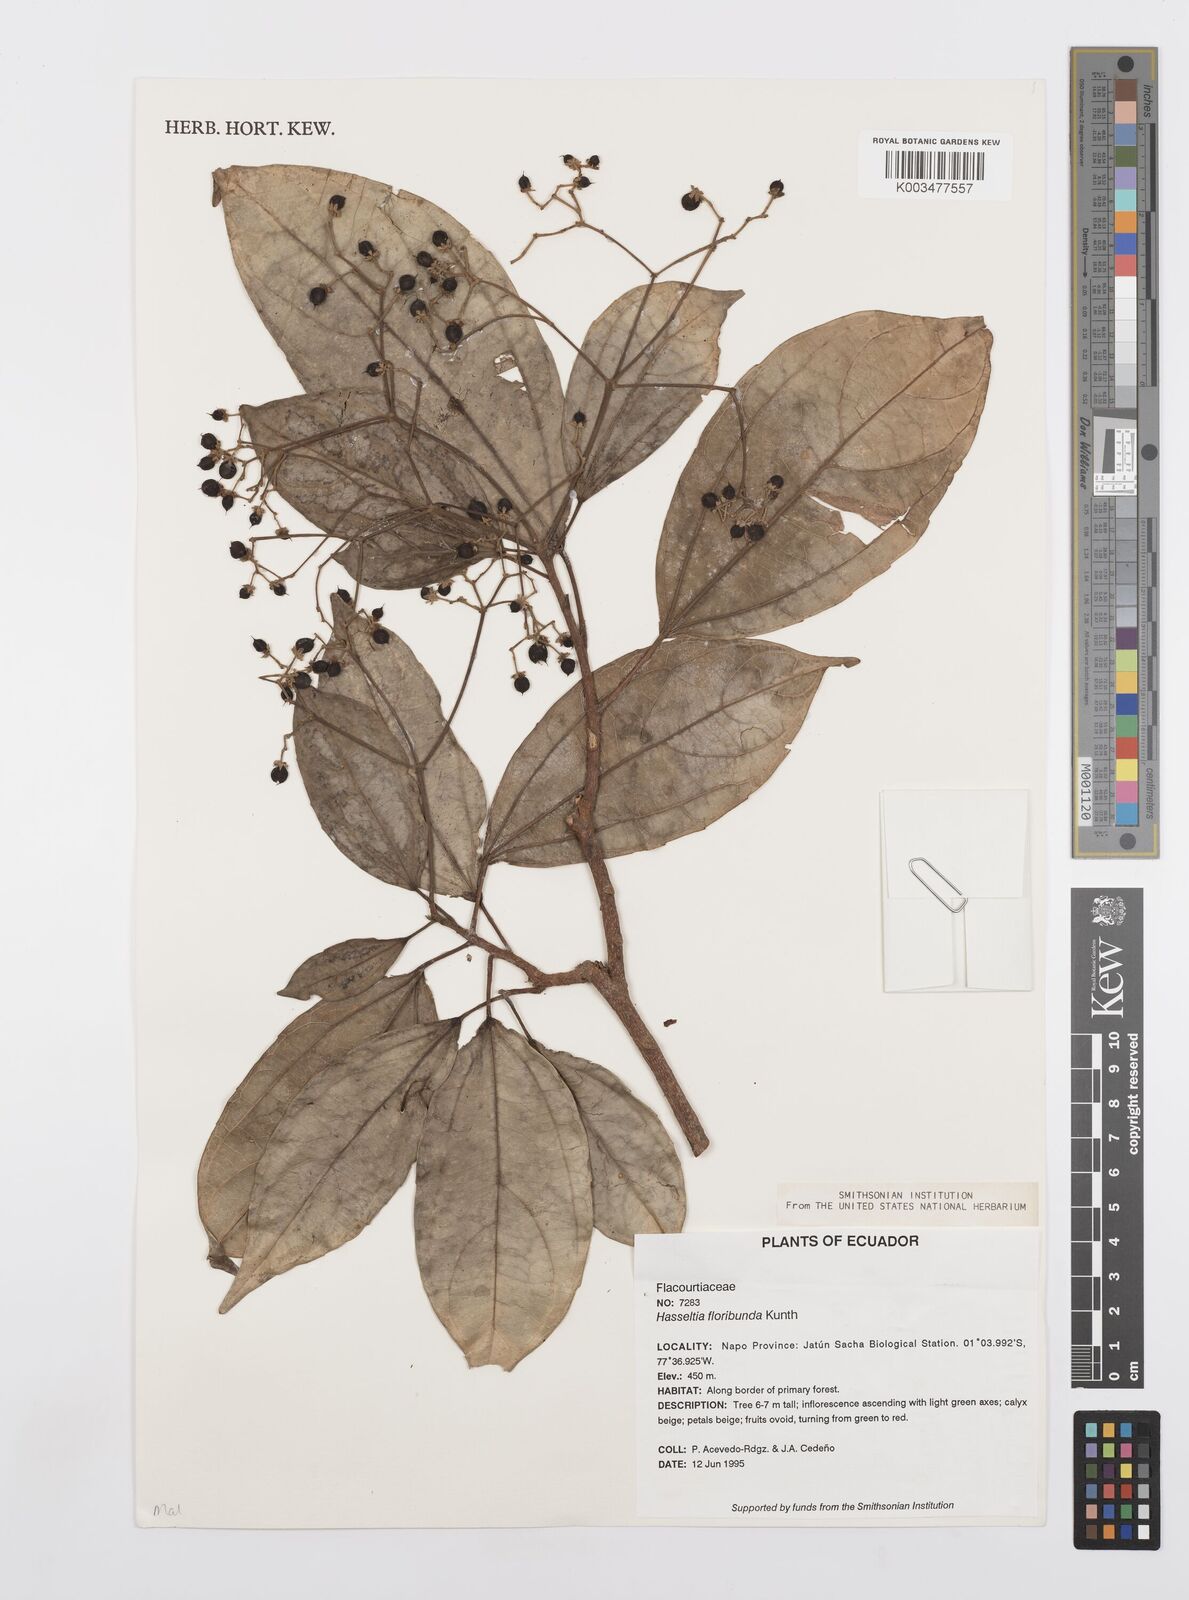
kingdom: Plantae
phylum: Tracheophyta
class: Magnoliopsida
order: Malpighiales
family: Salicaceae
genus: Hasseltia
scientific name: Hasseltia floribunda
